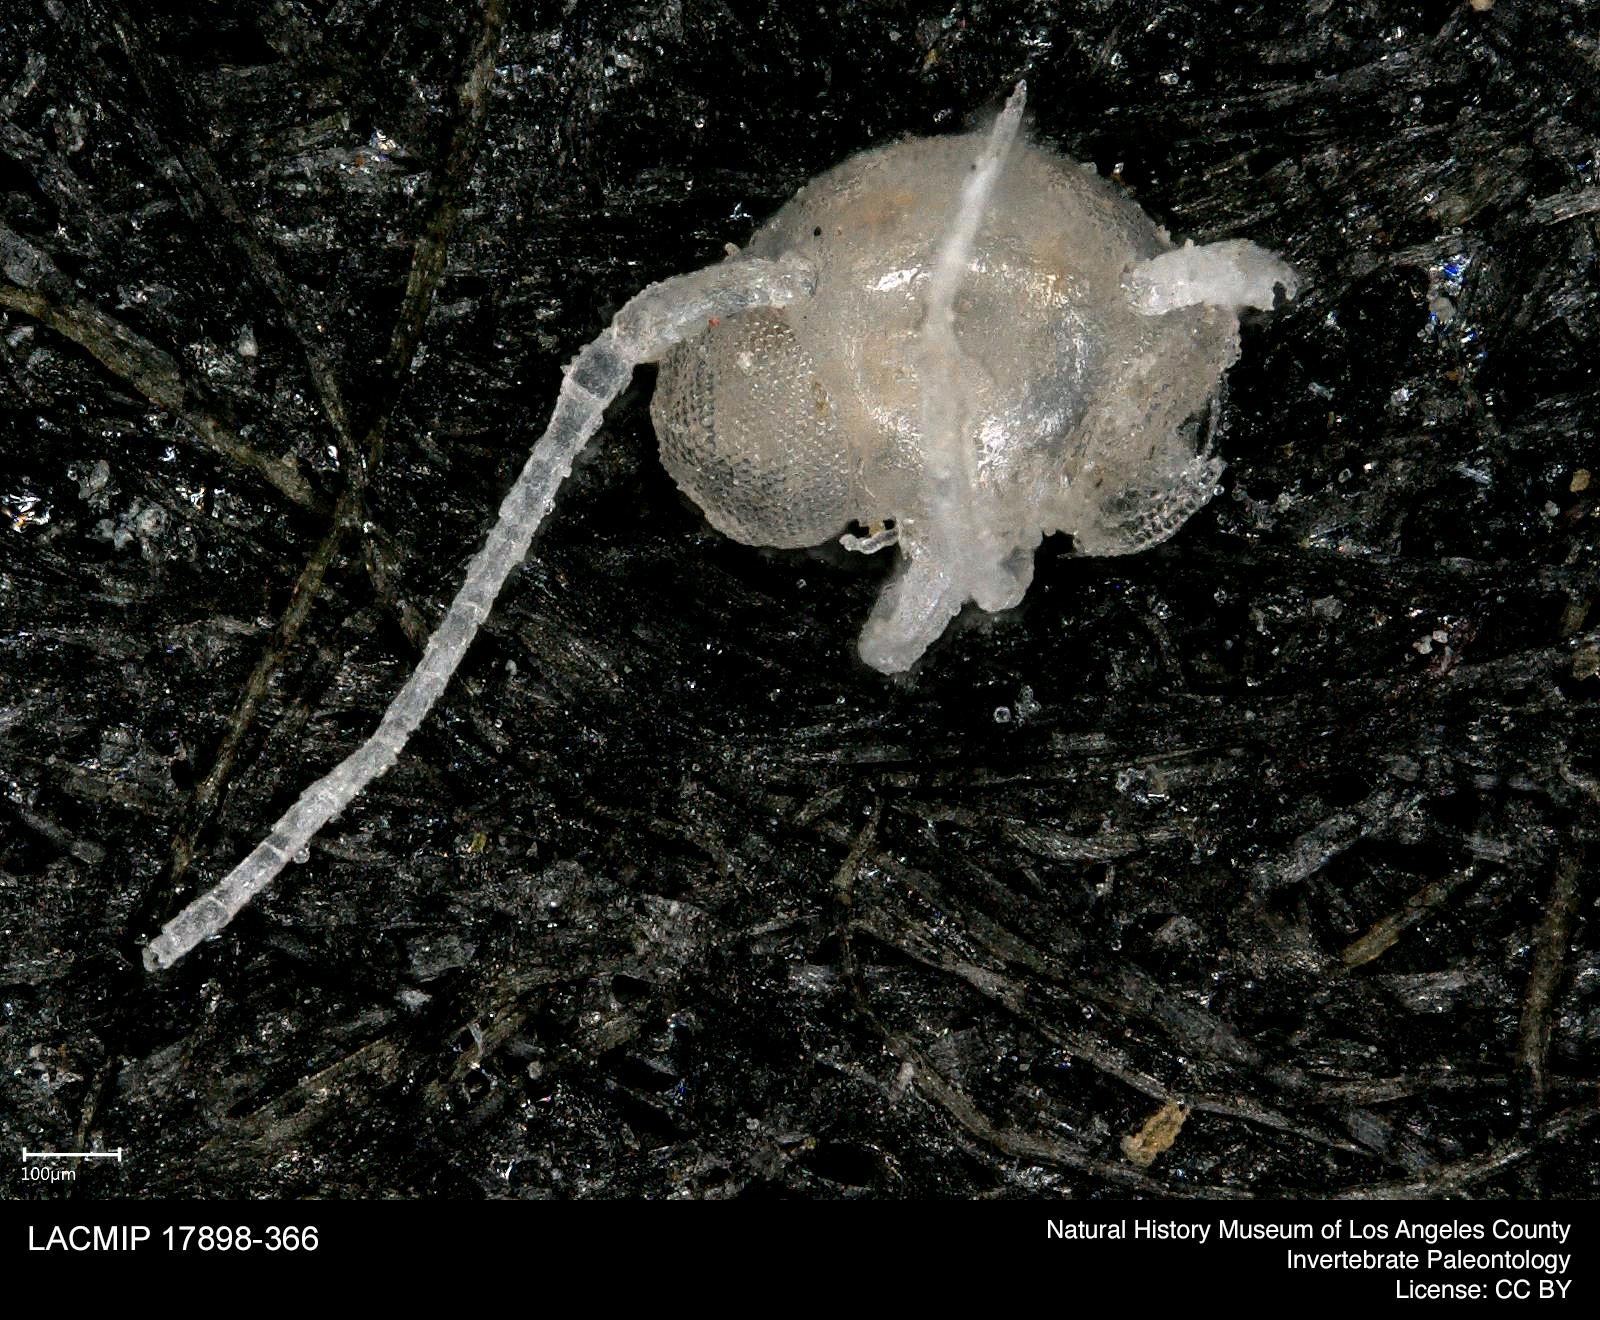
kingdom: Animalia
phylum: Arthropoda
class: Insecta
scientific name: Insecta
